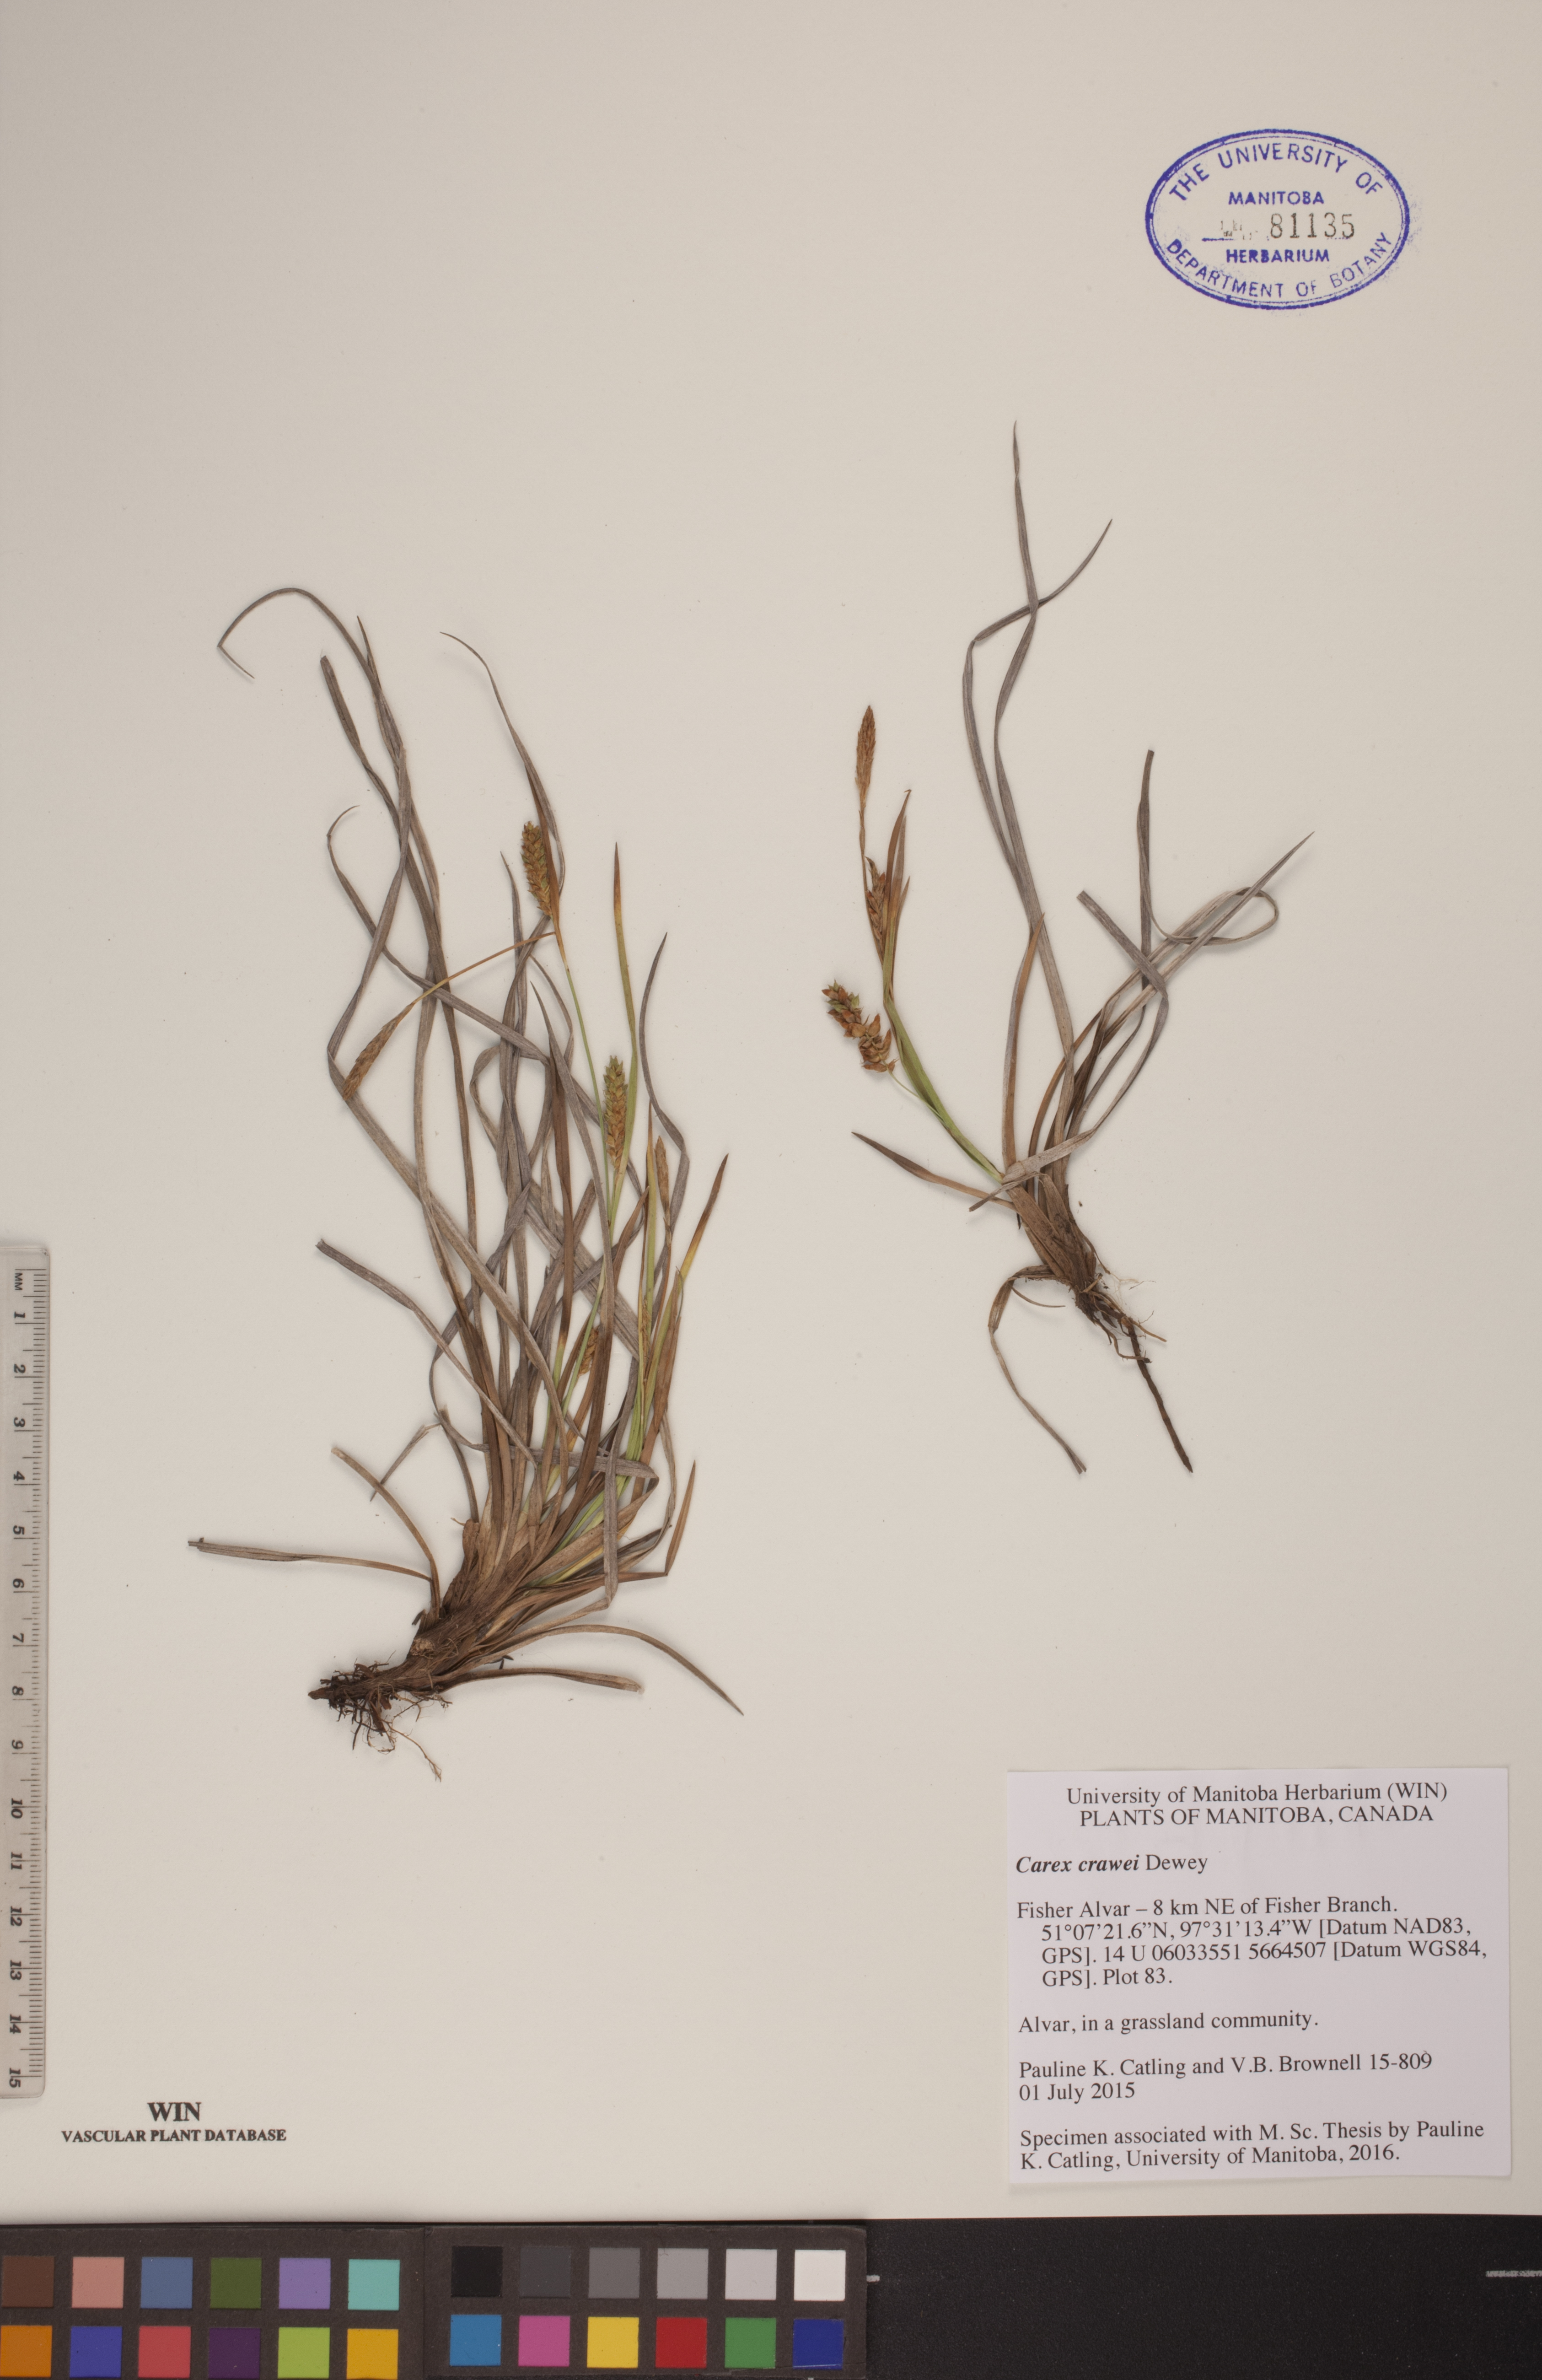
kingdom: Plantae
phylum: Tracheophyta
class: Liliopsida
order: Poales
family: Cyperaceae
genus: Carex
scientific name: Carex crawei
